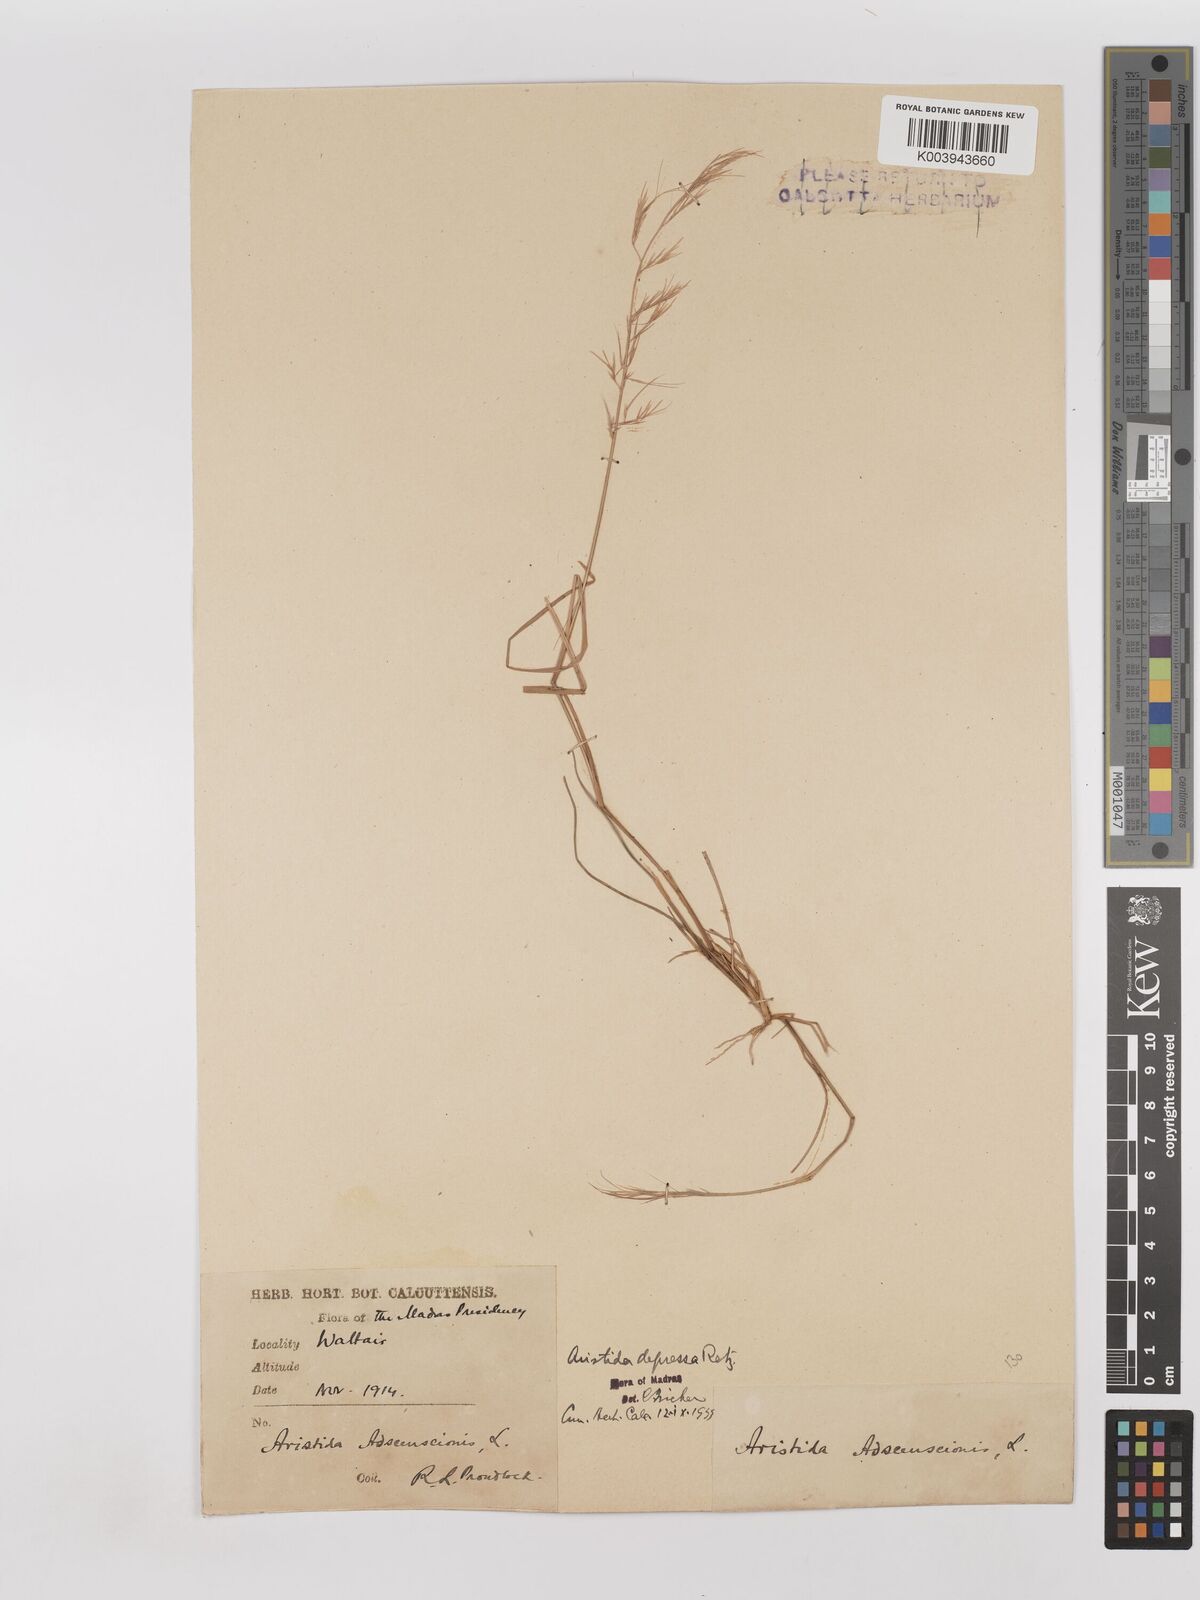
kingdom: Plantae
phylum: Tracheophyta
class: Liliopsida
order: Poales
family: Poaceae
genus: Aristida
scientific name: Aristida adscensionis
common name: Sixweeks threeawn
